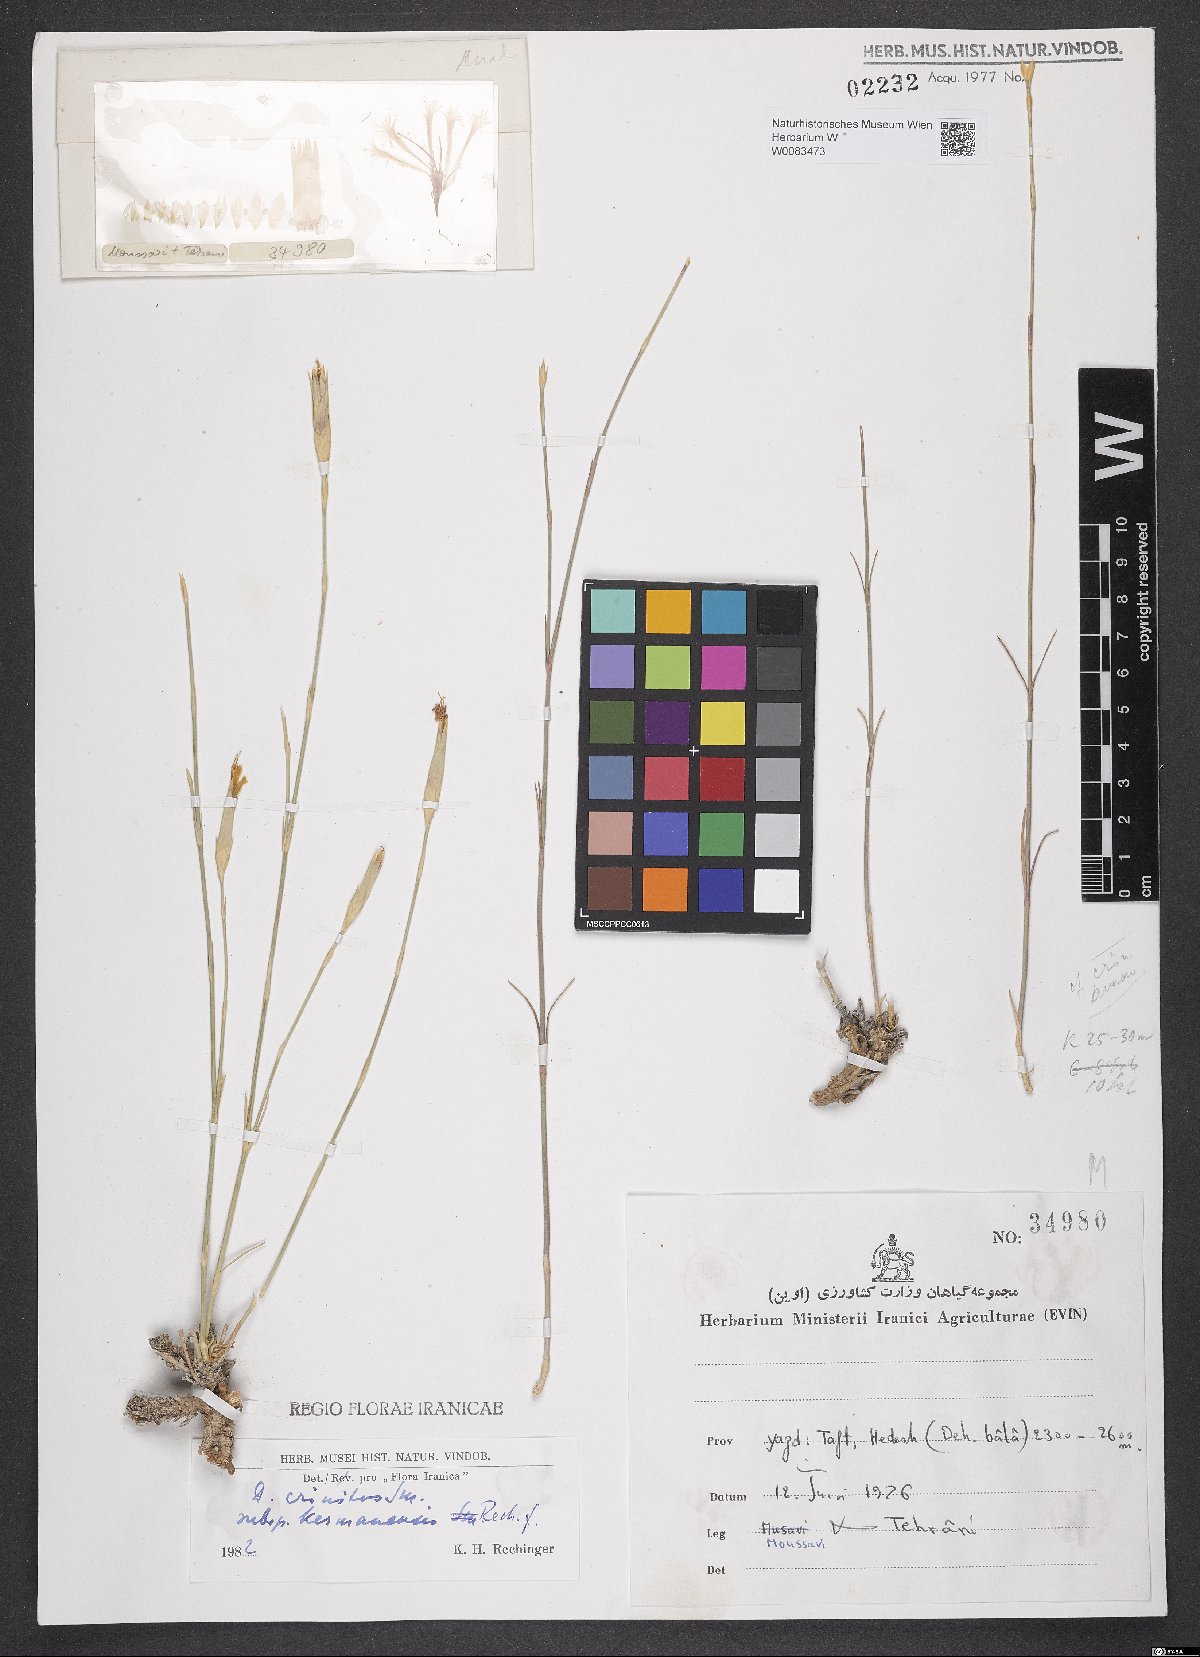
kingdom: Plantae
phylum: Tracheophyta
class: Magnoliopsida
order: Caryophyllales
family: Caryophyllaceae
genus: Dianthus
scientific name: Dianthus crinitus
